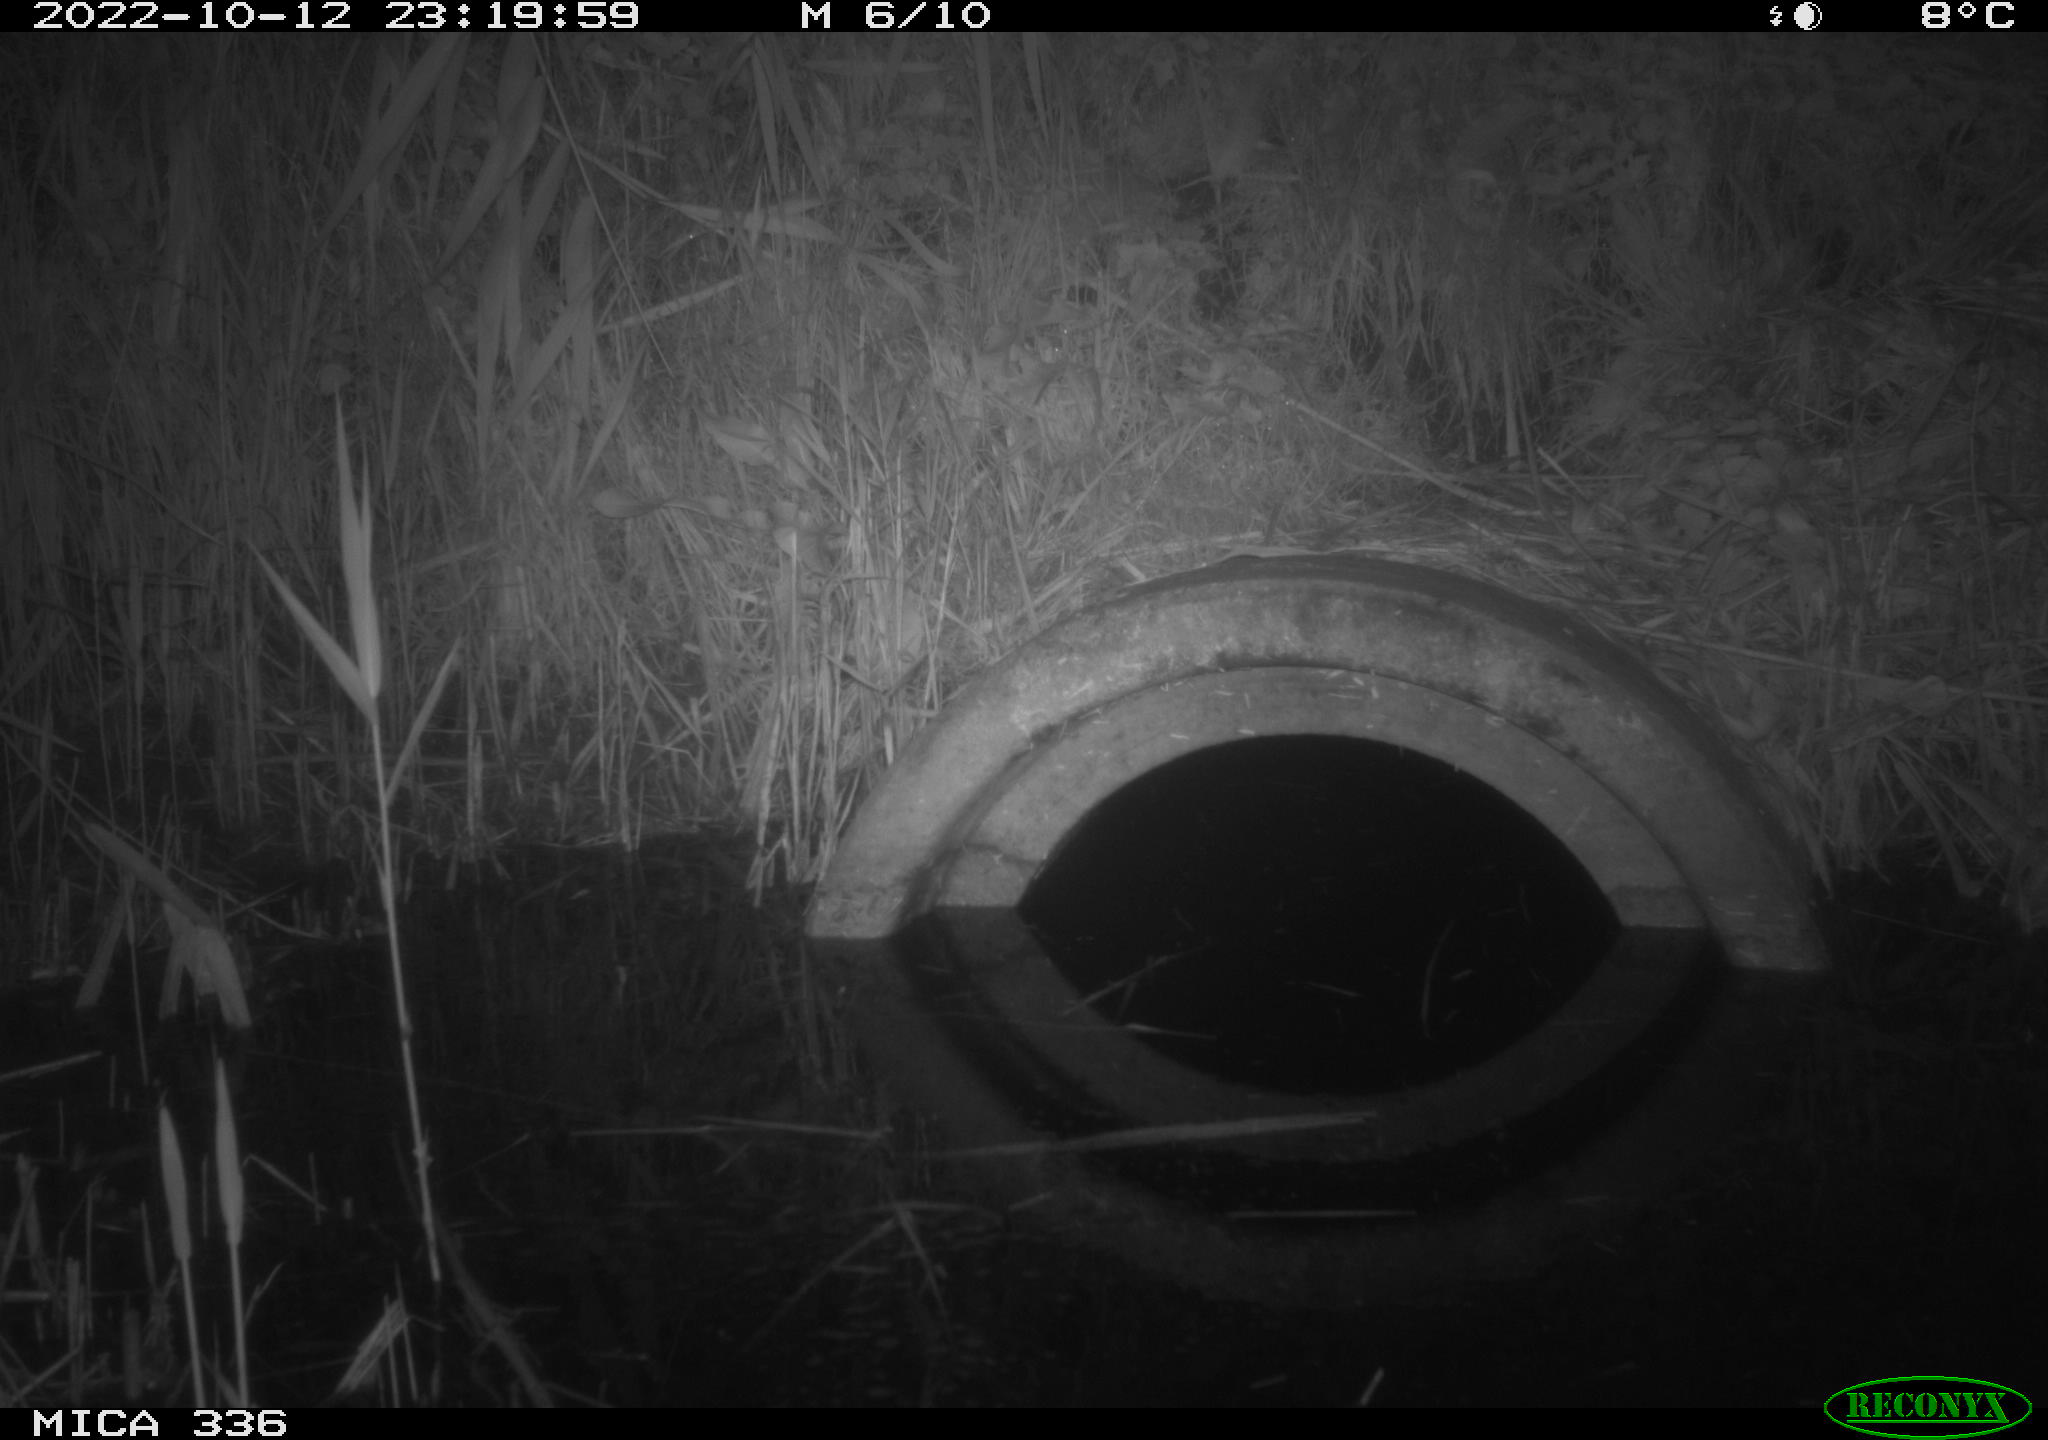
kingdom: Animalia
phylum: Chordata
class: Mammalia
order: Carnivora
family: Mustelidae
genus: Mustela
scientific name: Mustela nivalis
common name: Least weasel
